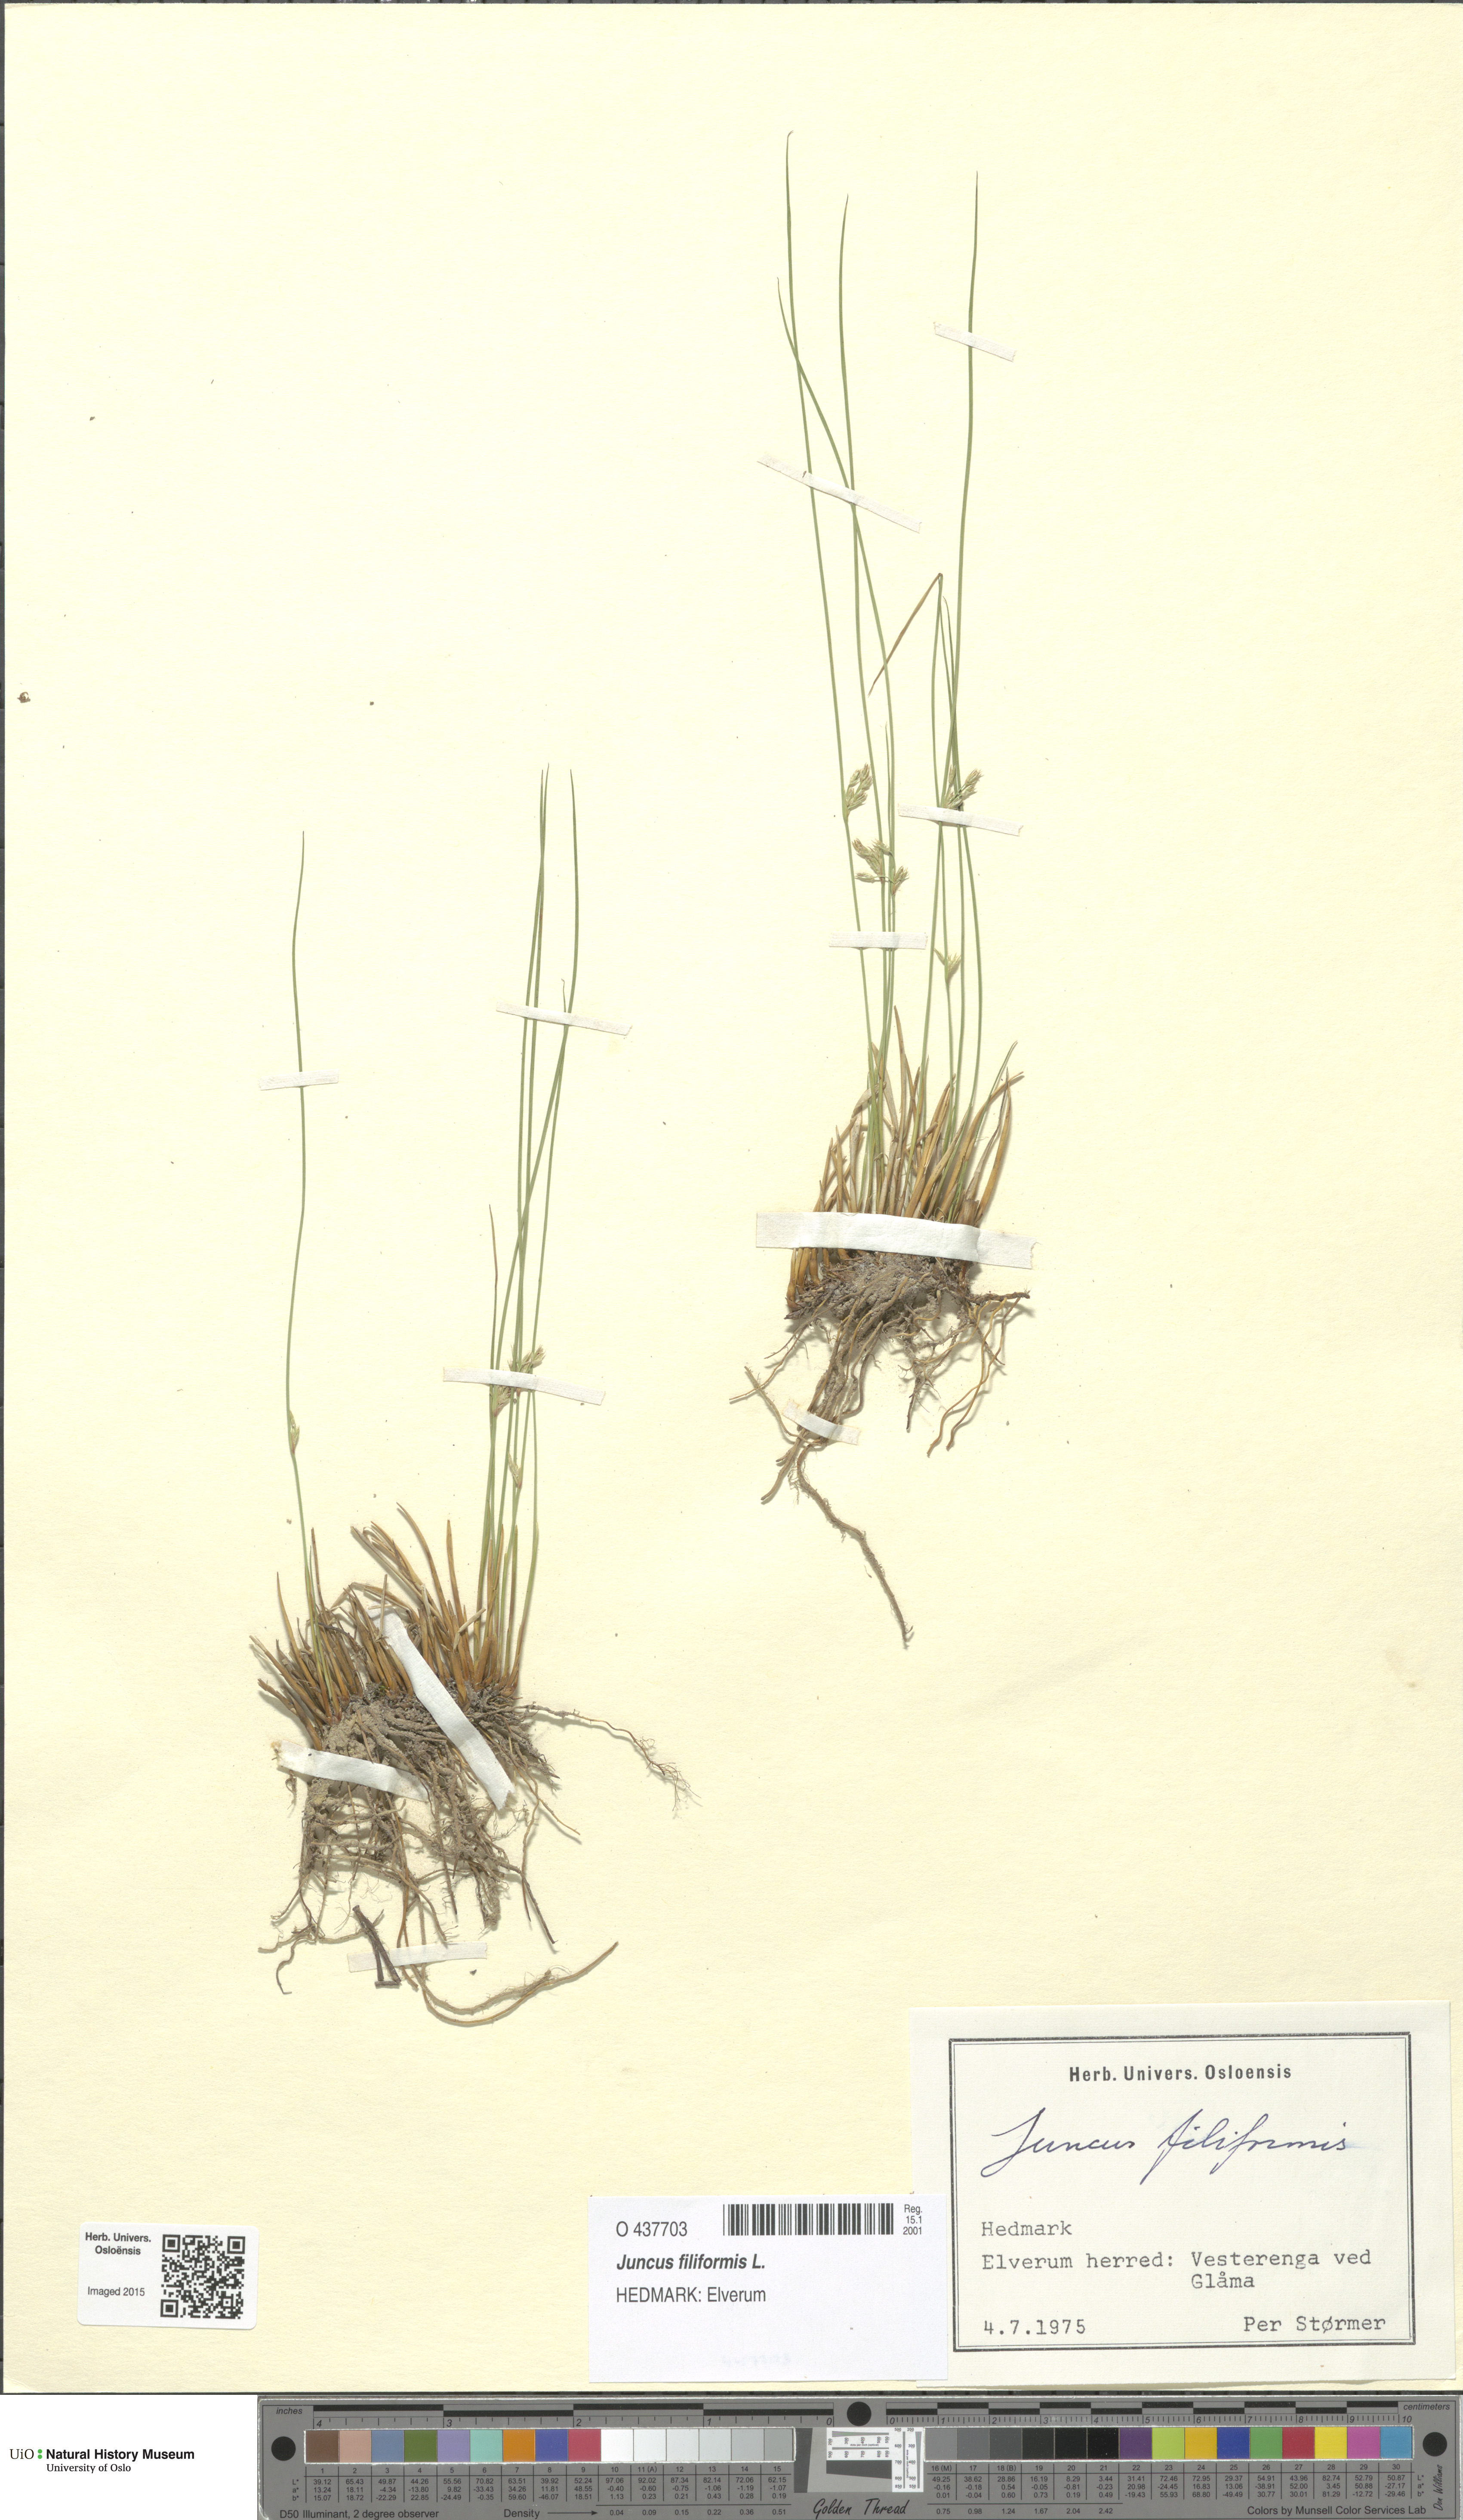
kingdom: Plantae
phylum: Tracheophyta
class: Liliopsida
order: Poales
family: Juncaceae
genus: Juncus
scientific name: Juncus filiformis
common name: Thread rush
